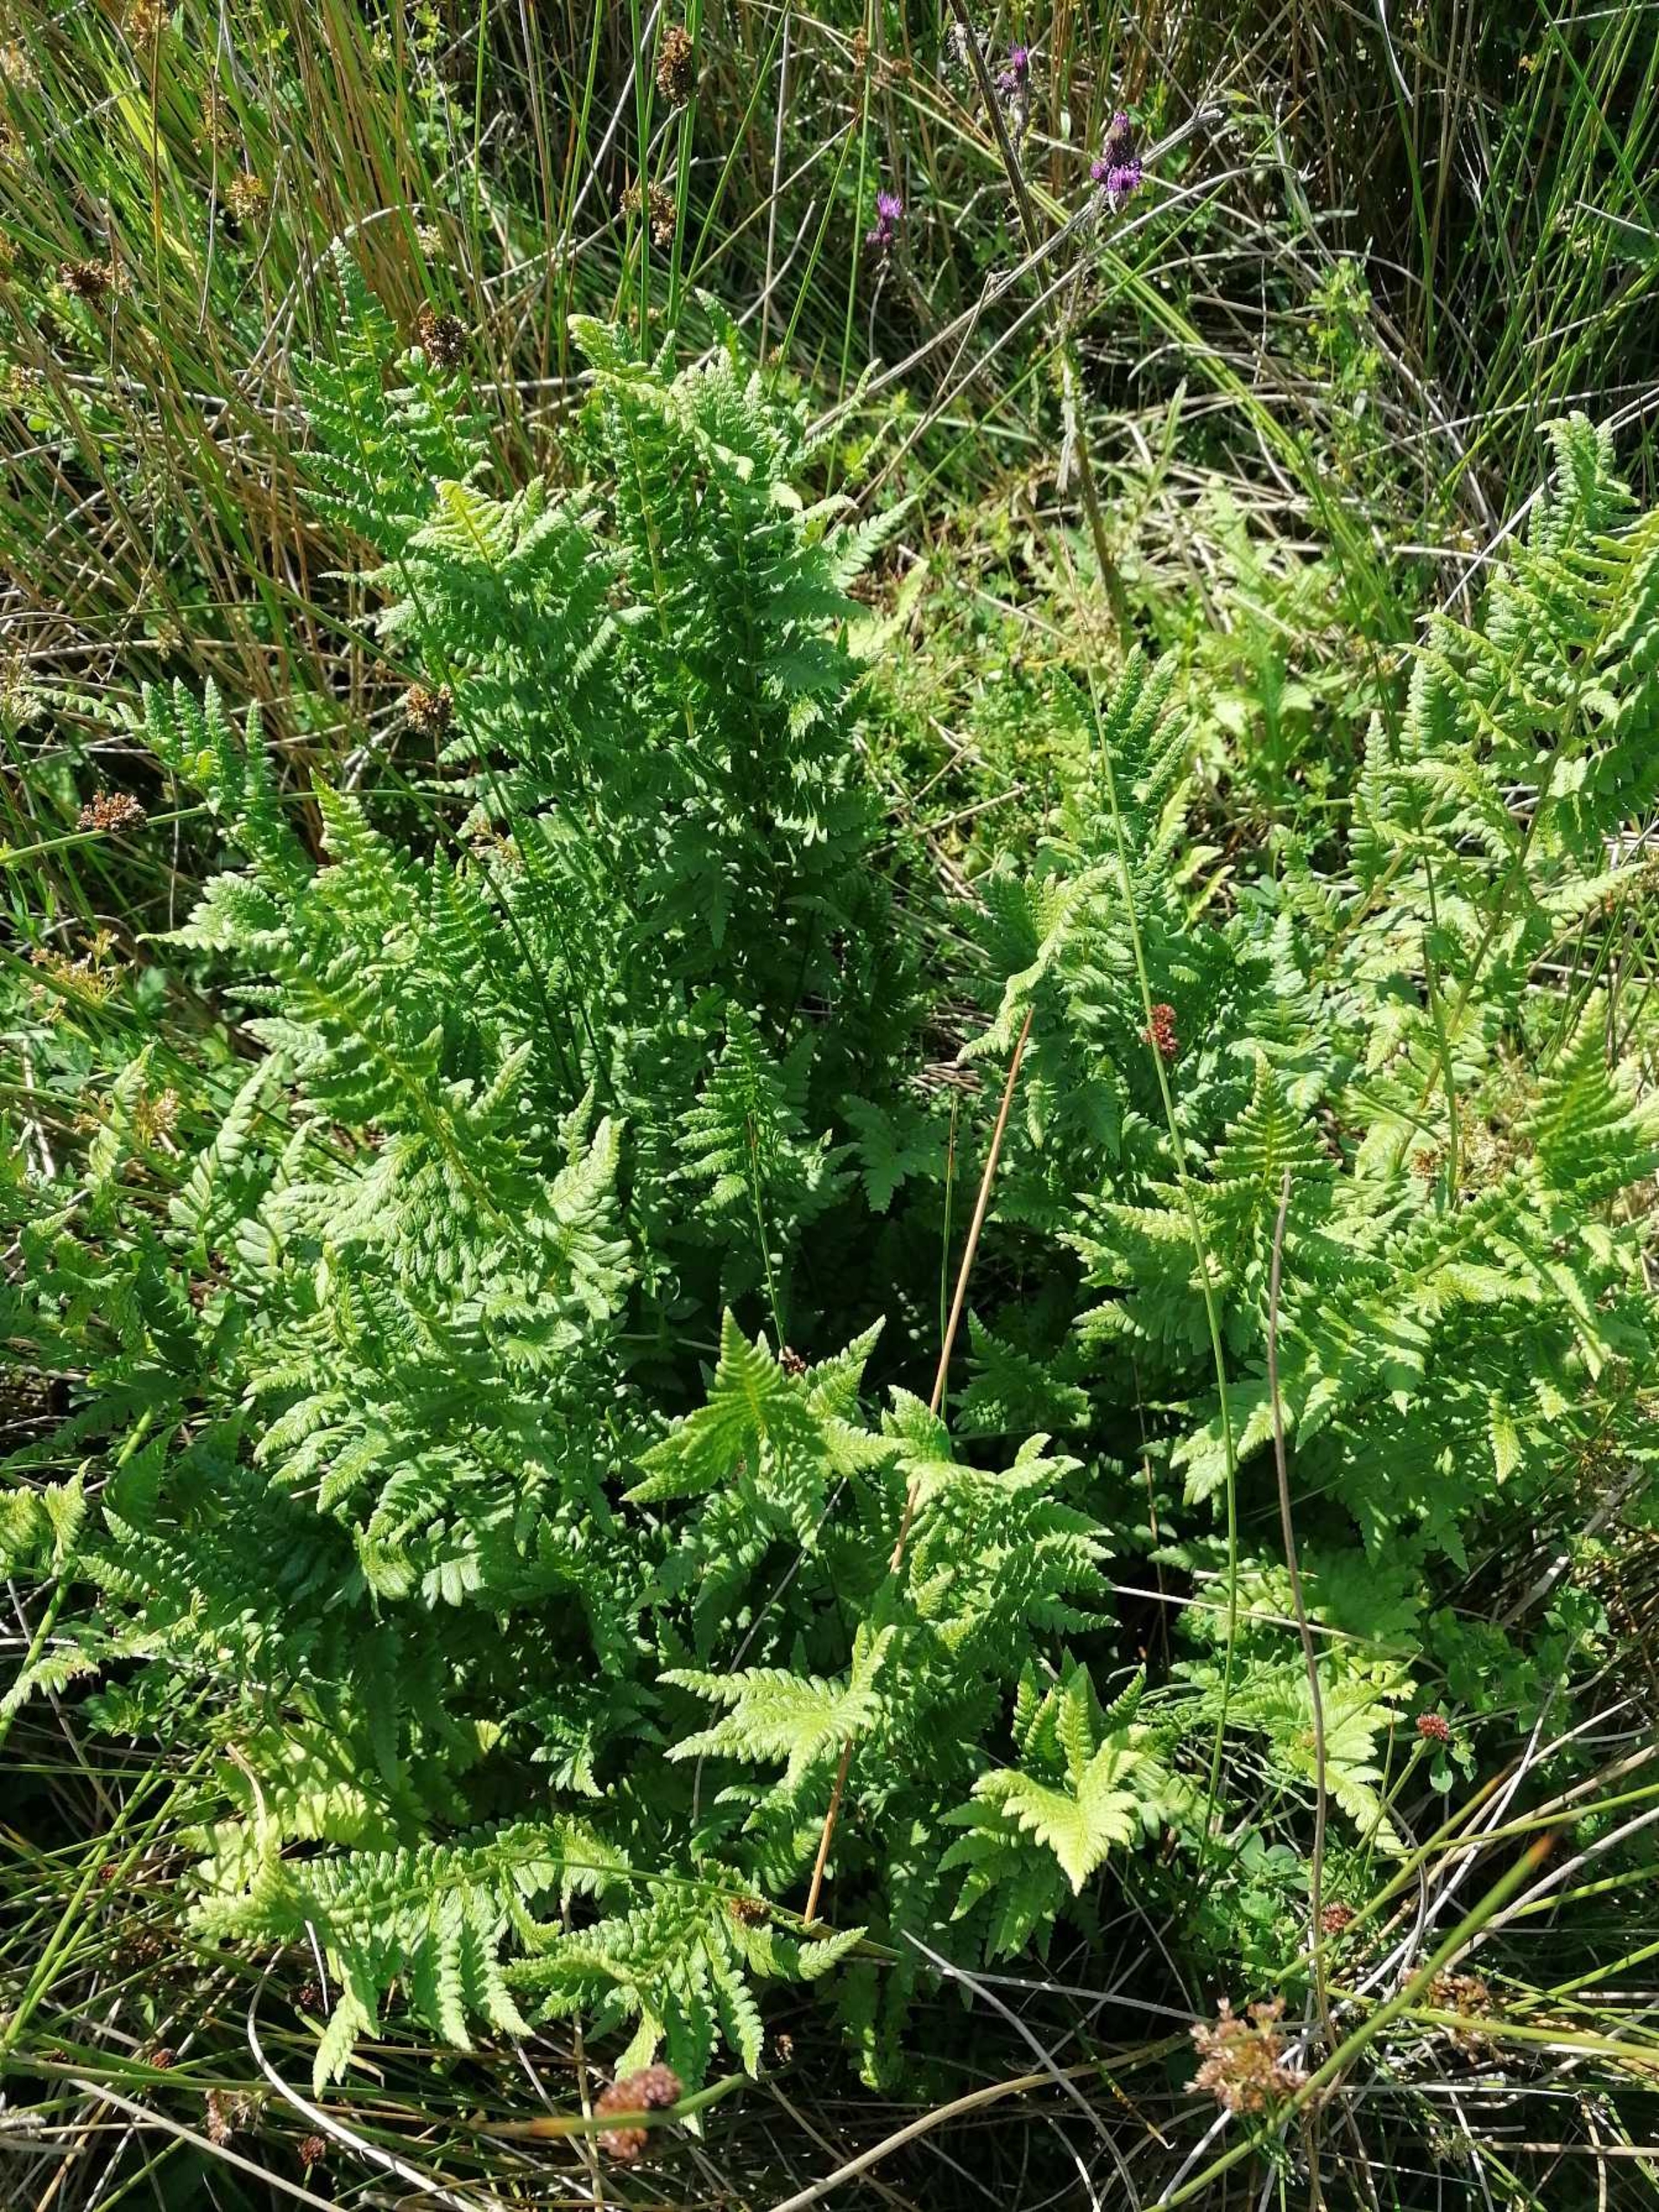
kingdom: Plantae
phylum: Tracheophyta
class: Polypodiopsida
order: Polypodiales
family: Dryopteridaceae
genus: Dryopteris
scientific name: Dryopteris cristata
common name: Butfinnet mangeløv
